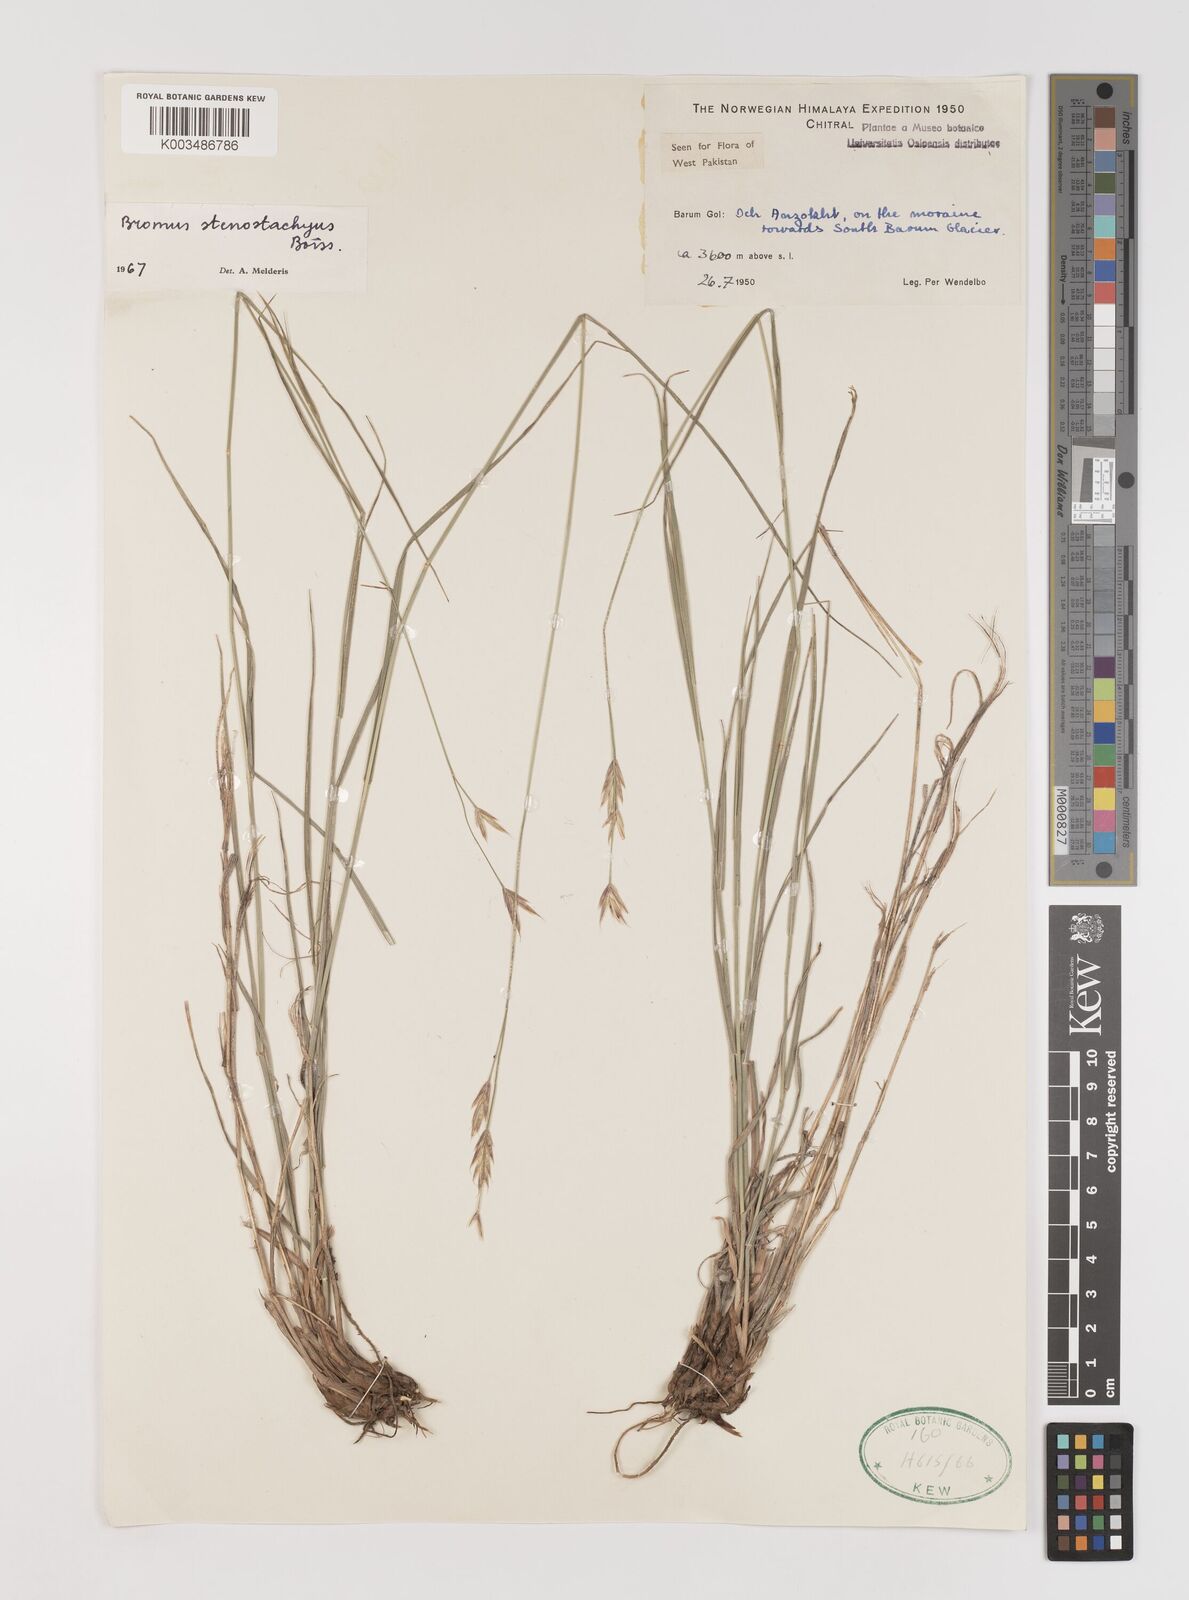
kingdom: Plantae
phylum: Tracheophyta
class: Liliopsida
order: Poales
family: Poaceae
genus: Bromus
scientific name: Bromus stenostachyus
